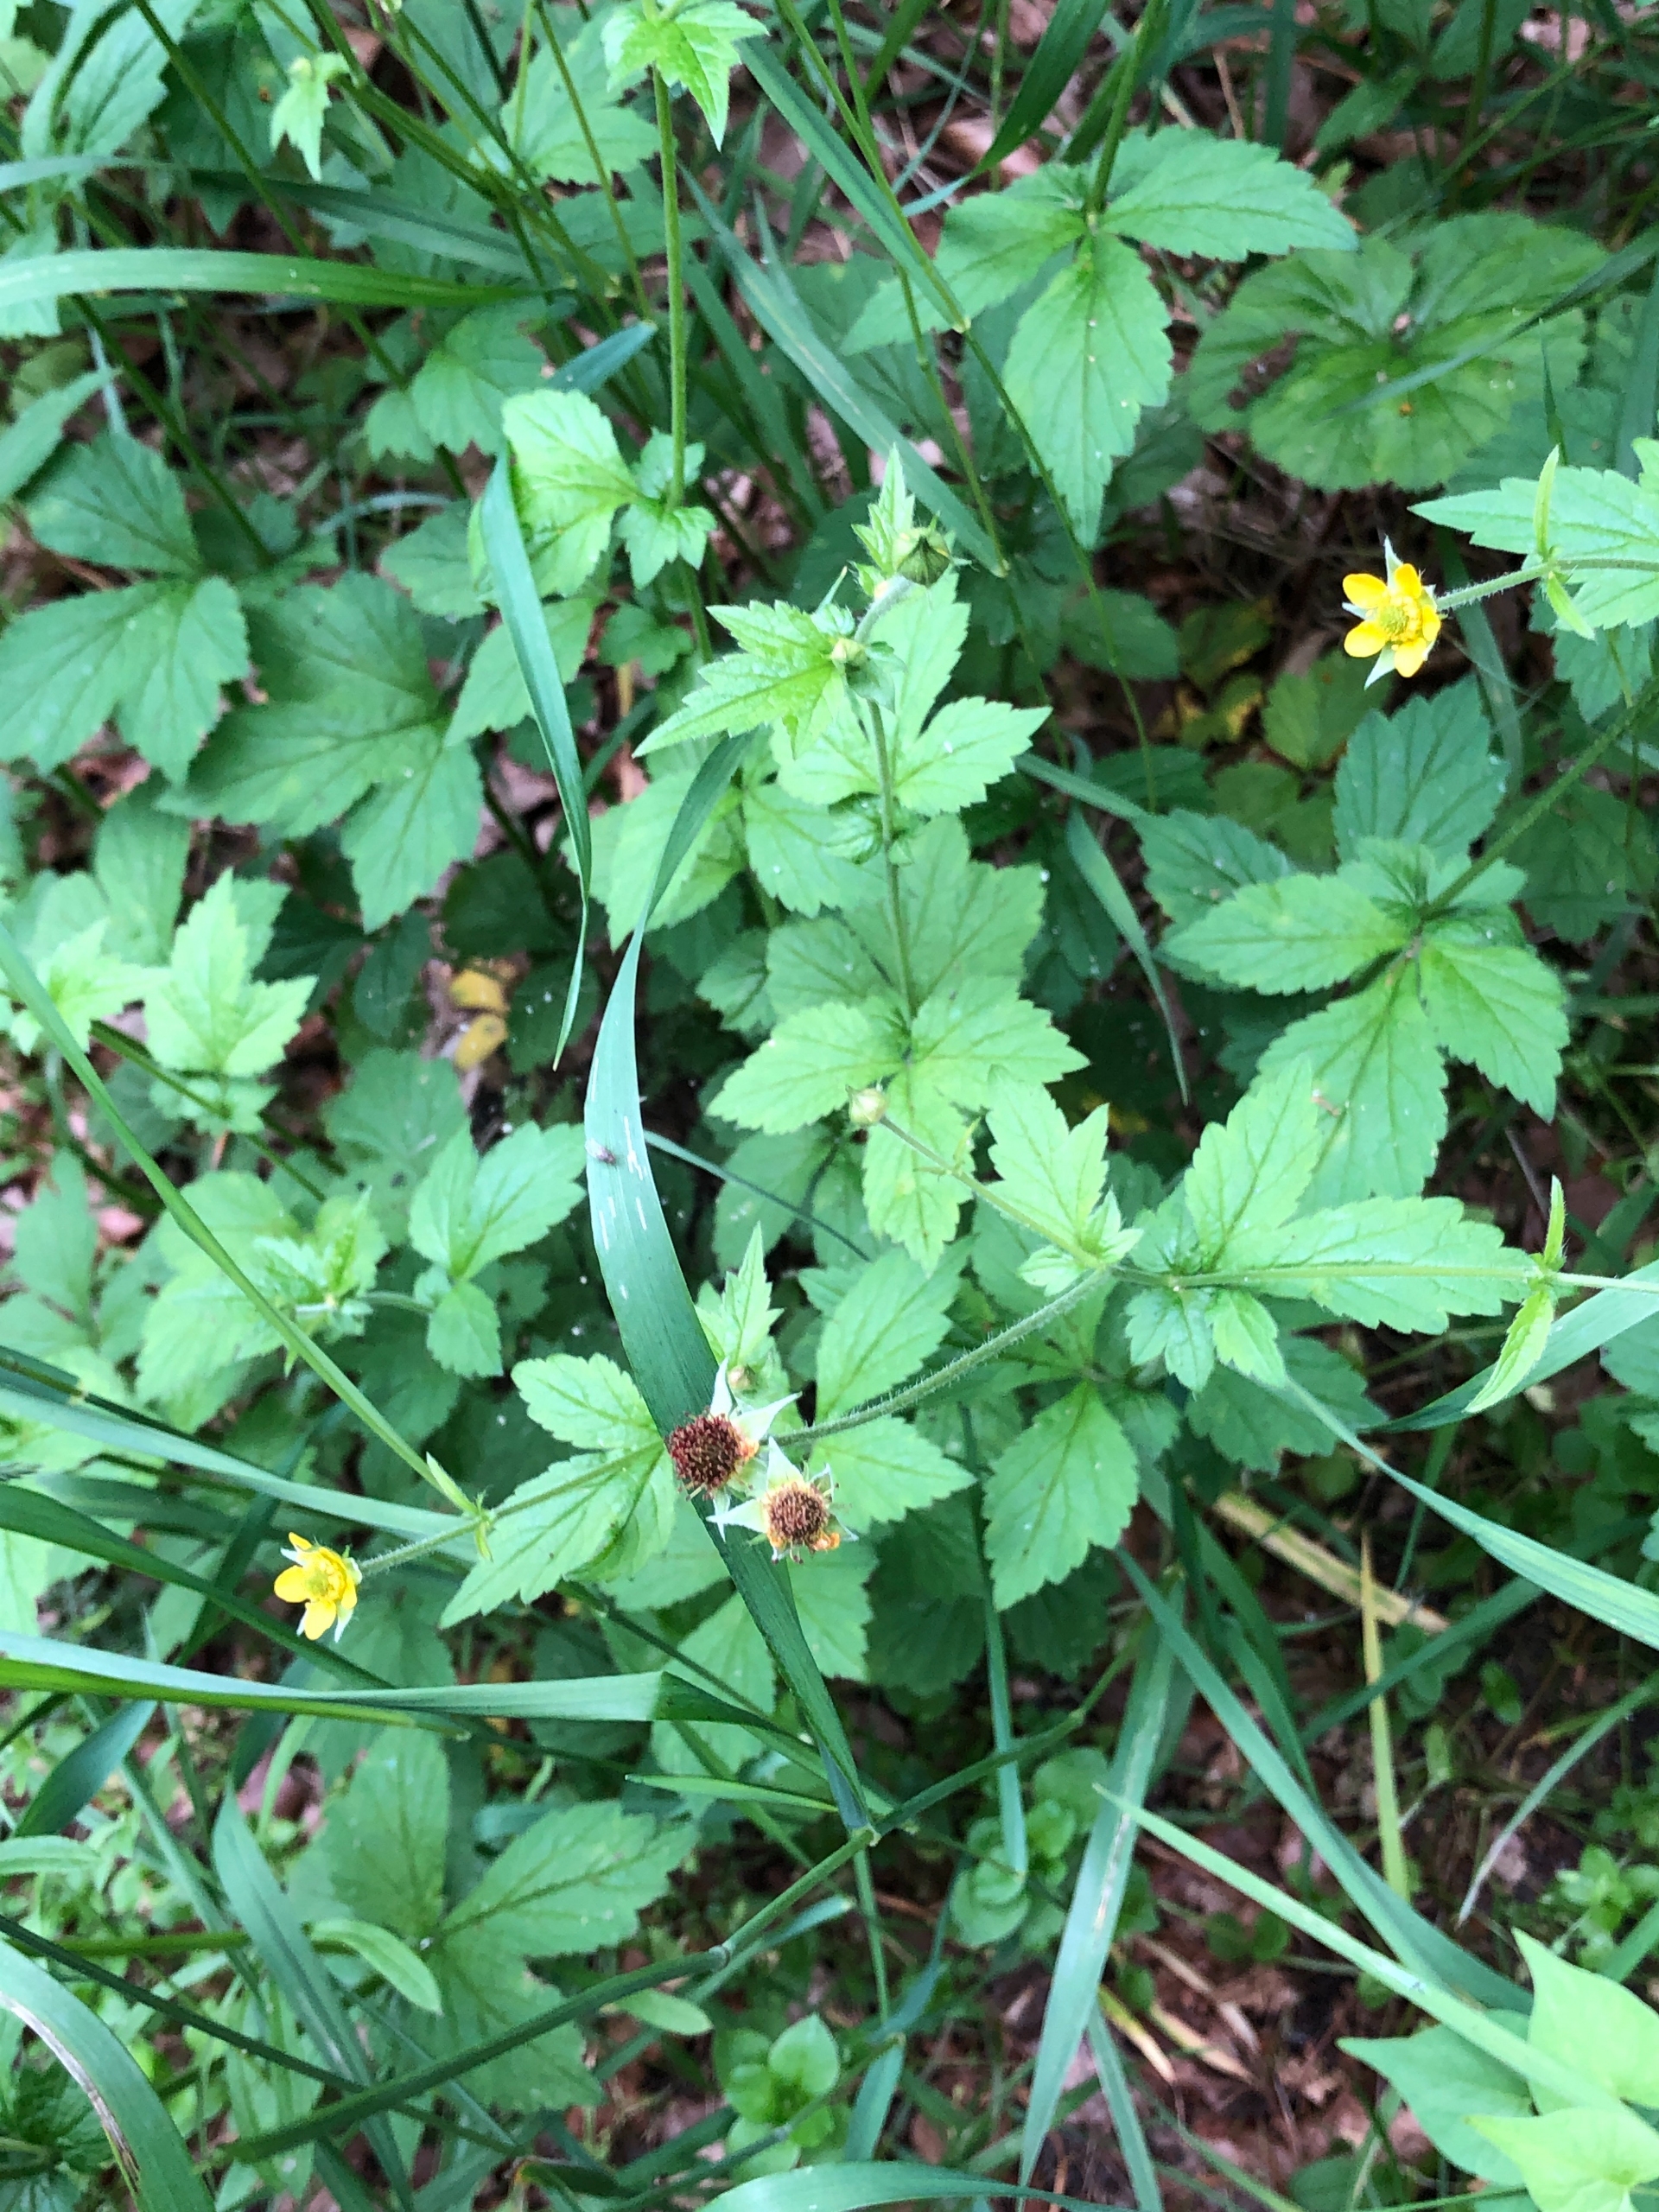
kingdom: Plantae
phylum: Tracheophyta
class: Magnoliopsida
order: Rosales
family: Rosaceae
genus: Geum
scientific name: Geum urbanum
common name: Feber-nellikerod
